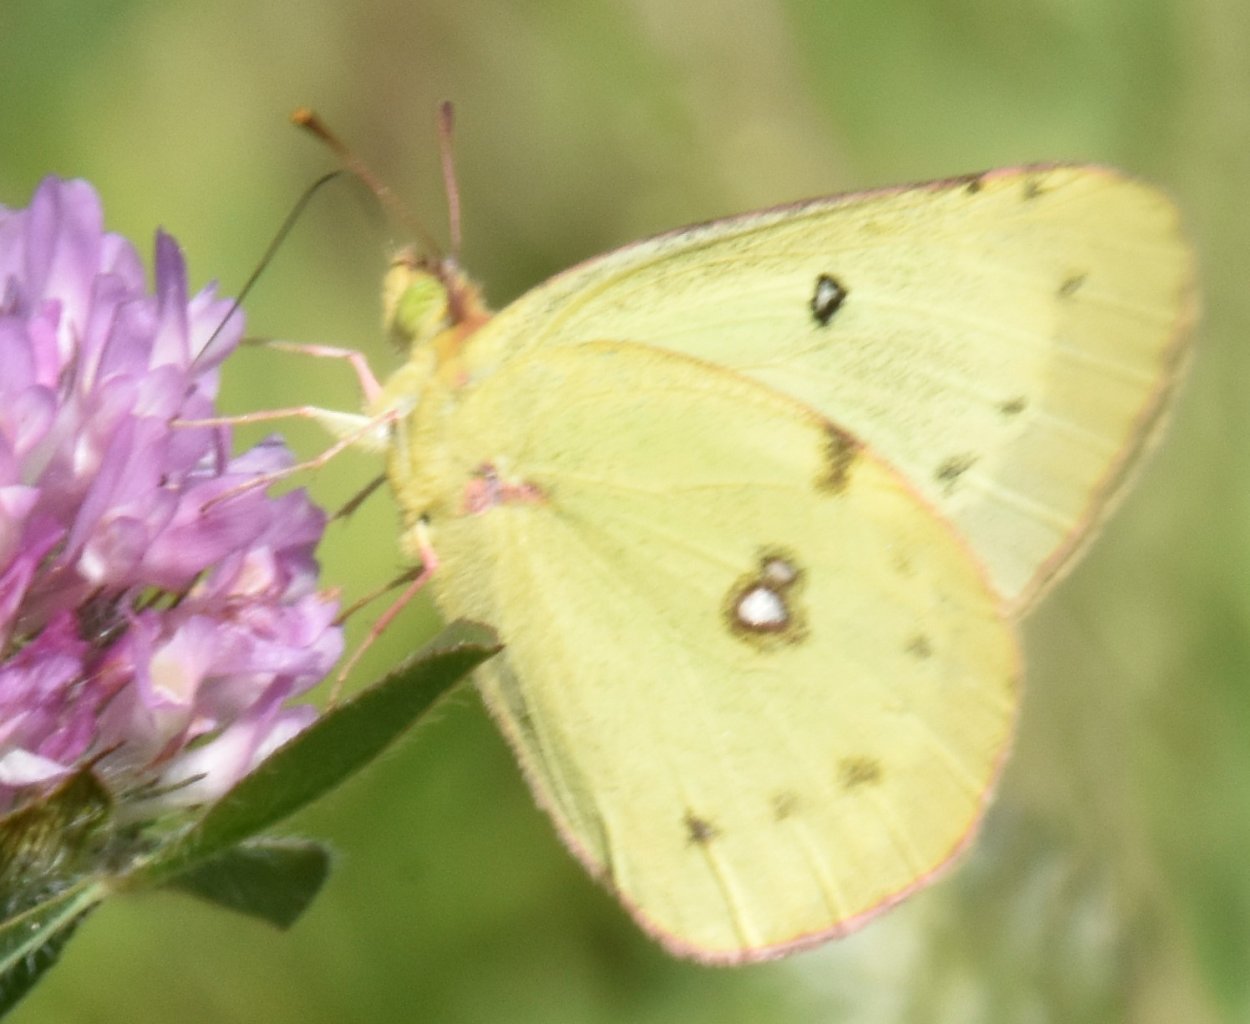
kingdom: Animalia
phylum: Arthropoda
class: Insecta
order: Lepidoptera
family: Pieridae
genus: Colias
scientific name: Colias
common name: Clouded Yellows
